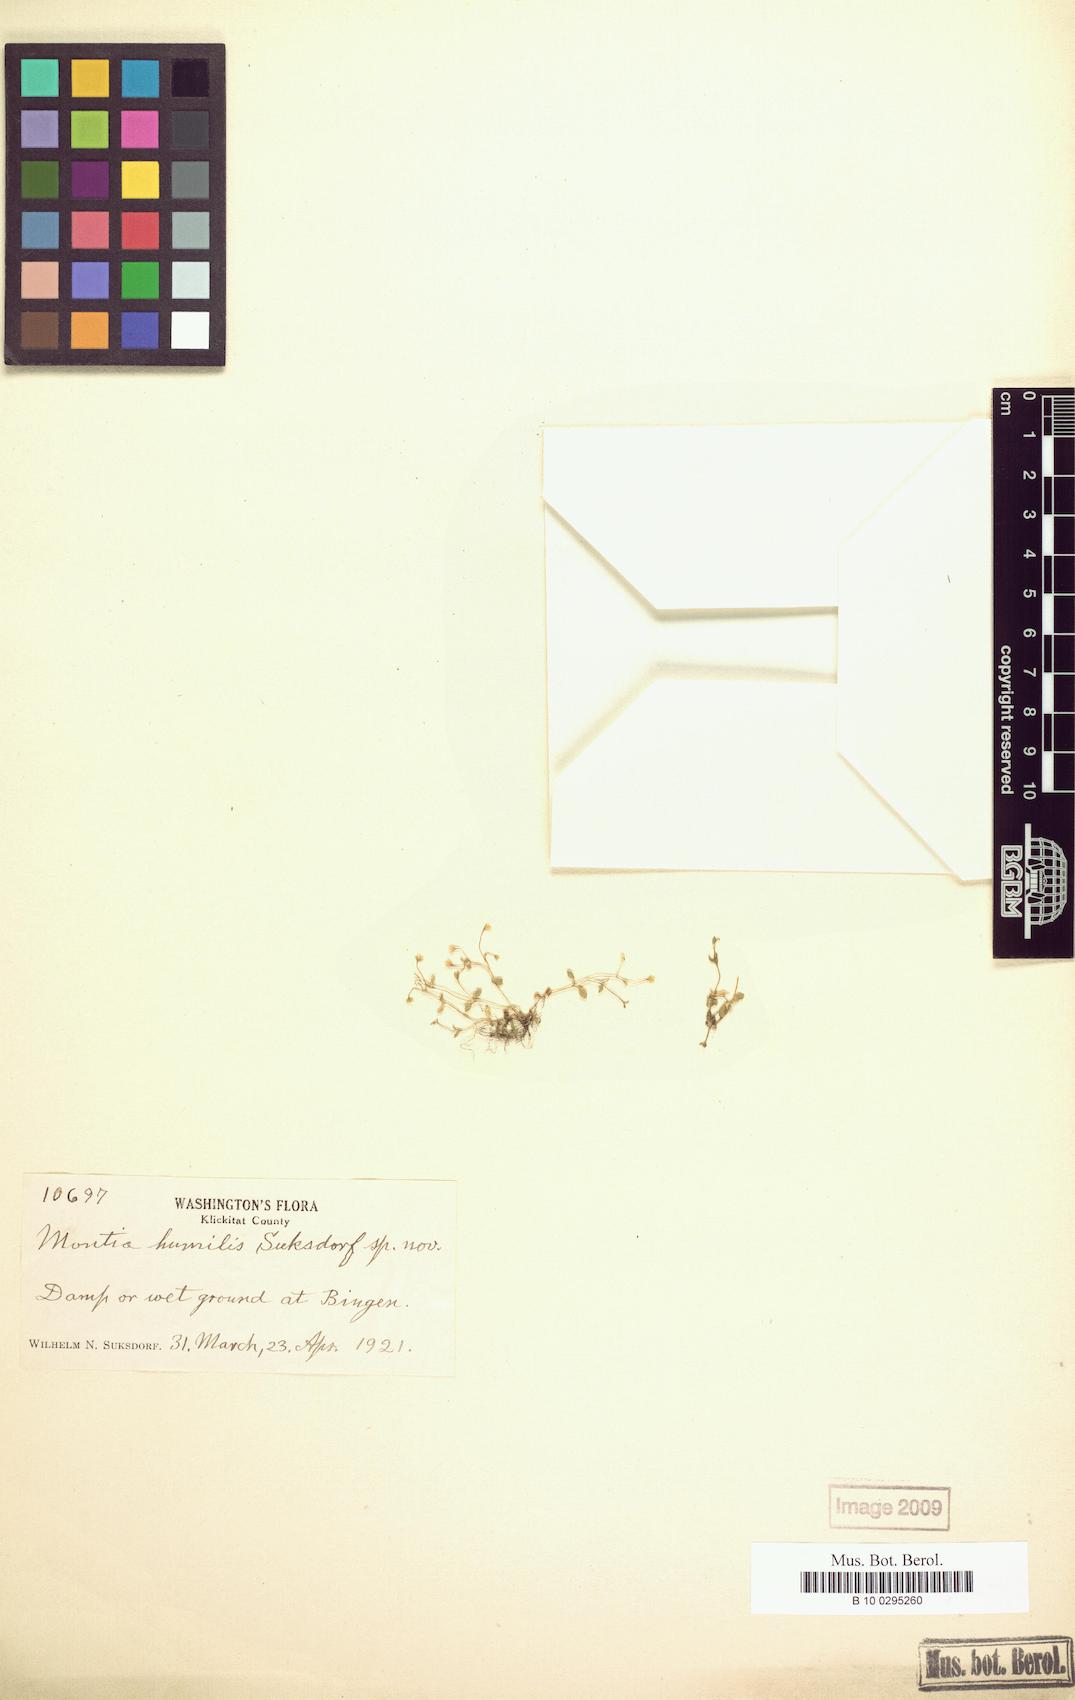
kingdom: Plantae
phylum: Tracheophyta
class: Magnoliopsida
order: Caryophyllales
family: Montiaceae
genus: Montia
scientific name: Montia fontana
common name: Blinks
